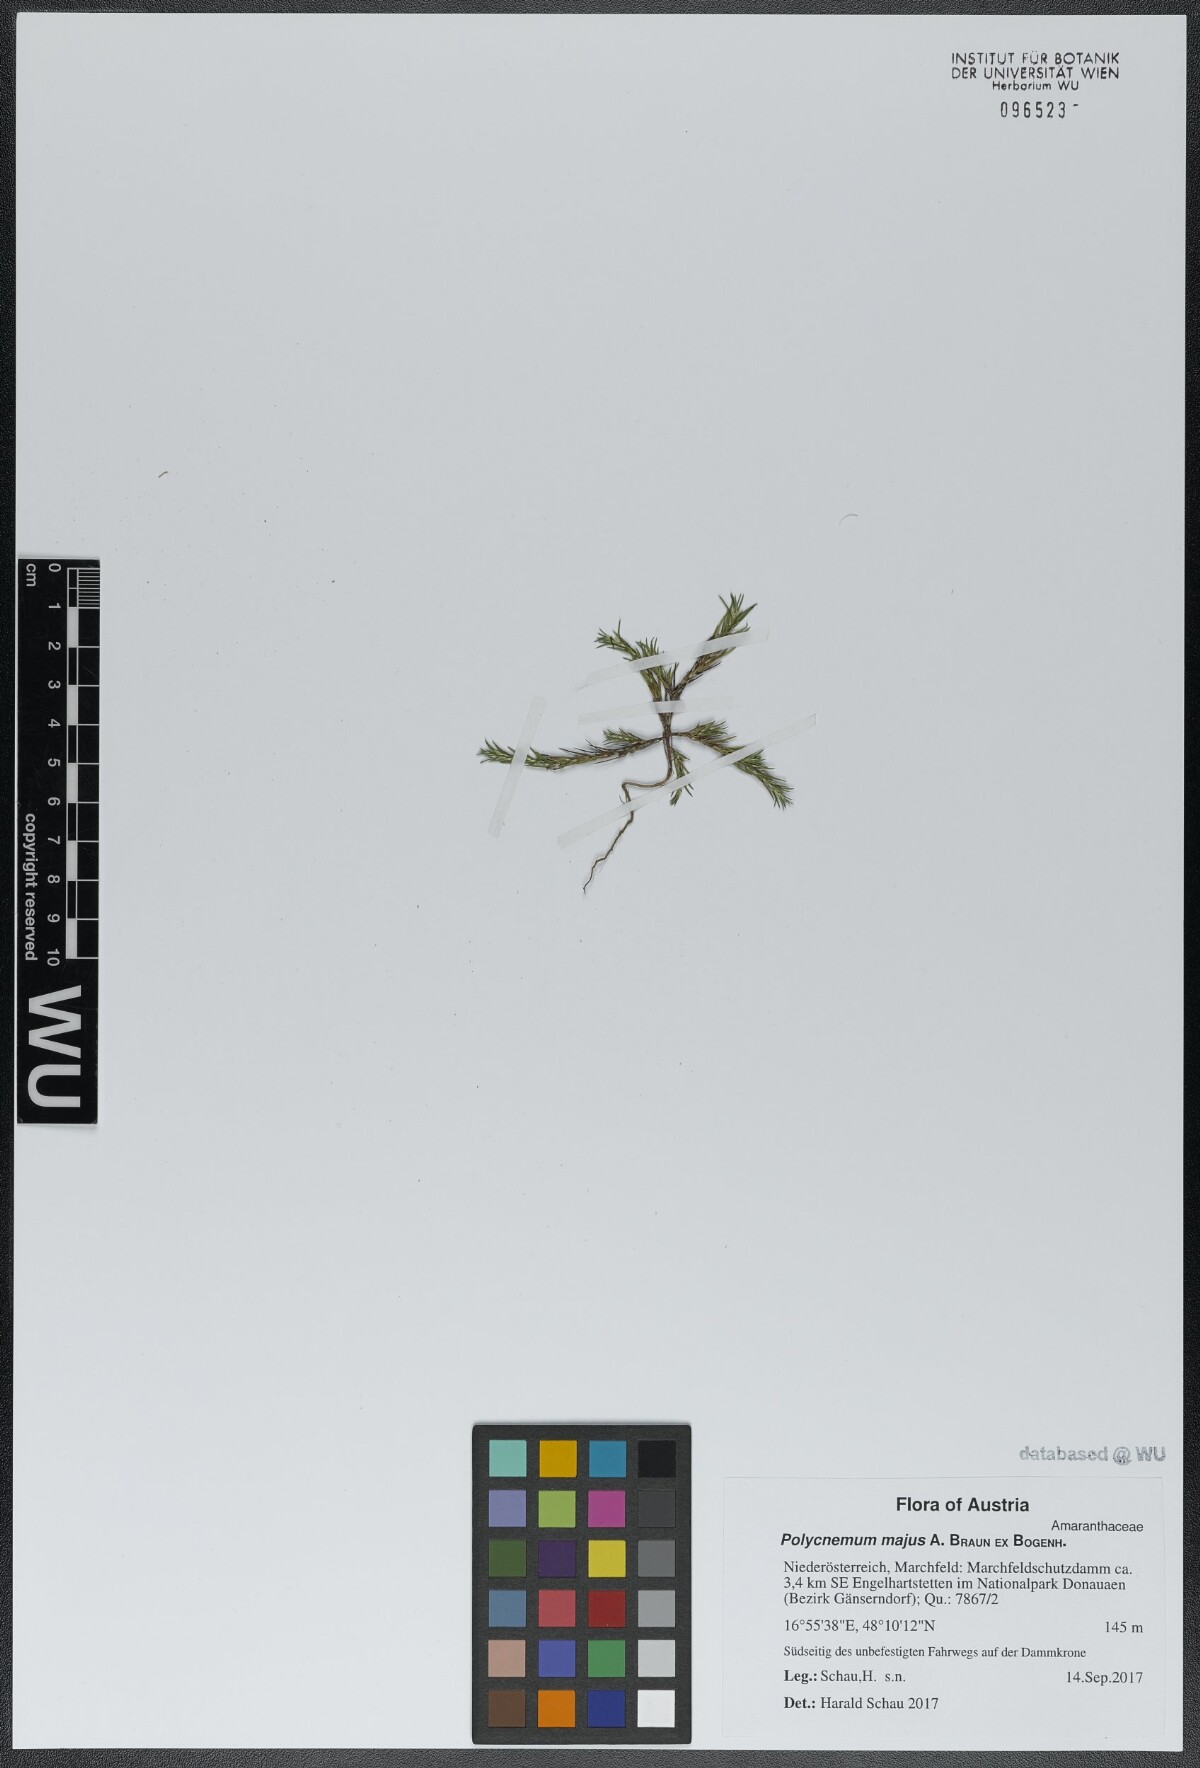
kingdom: Plantae
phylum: Tracheophyta
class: Magnoliopsida
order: Caryophyllales
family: Amaranthaceae
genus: Polycnemum
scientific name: Polycnemum majus
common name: Giant needleleaf
